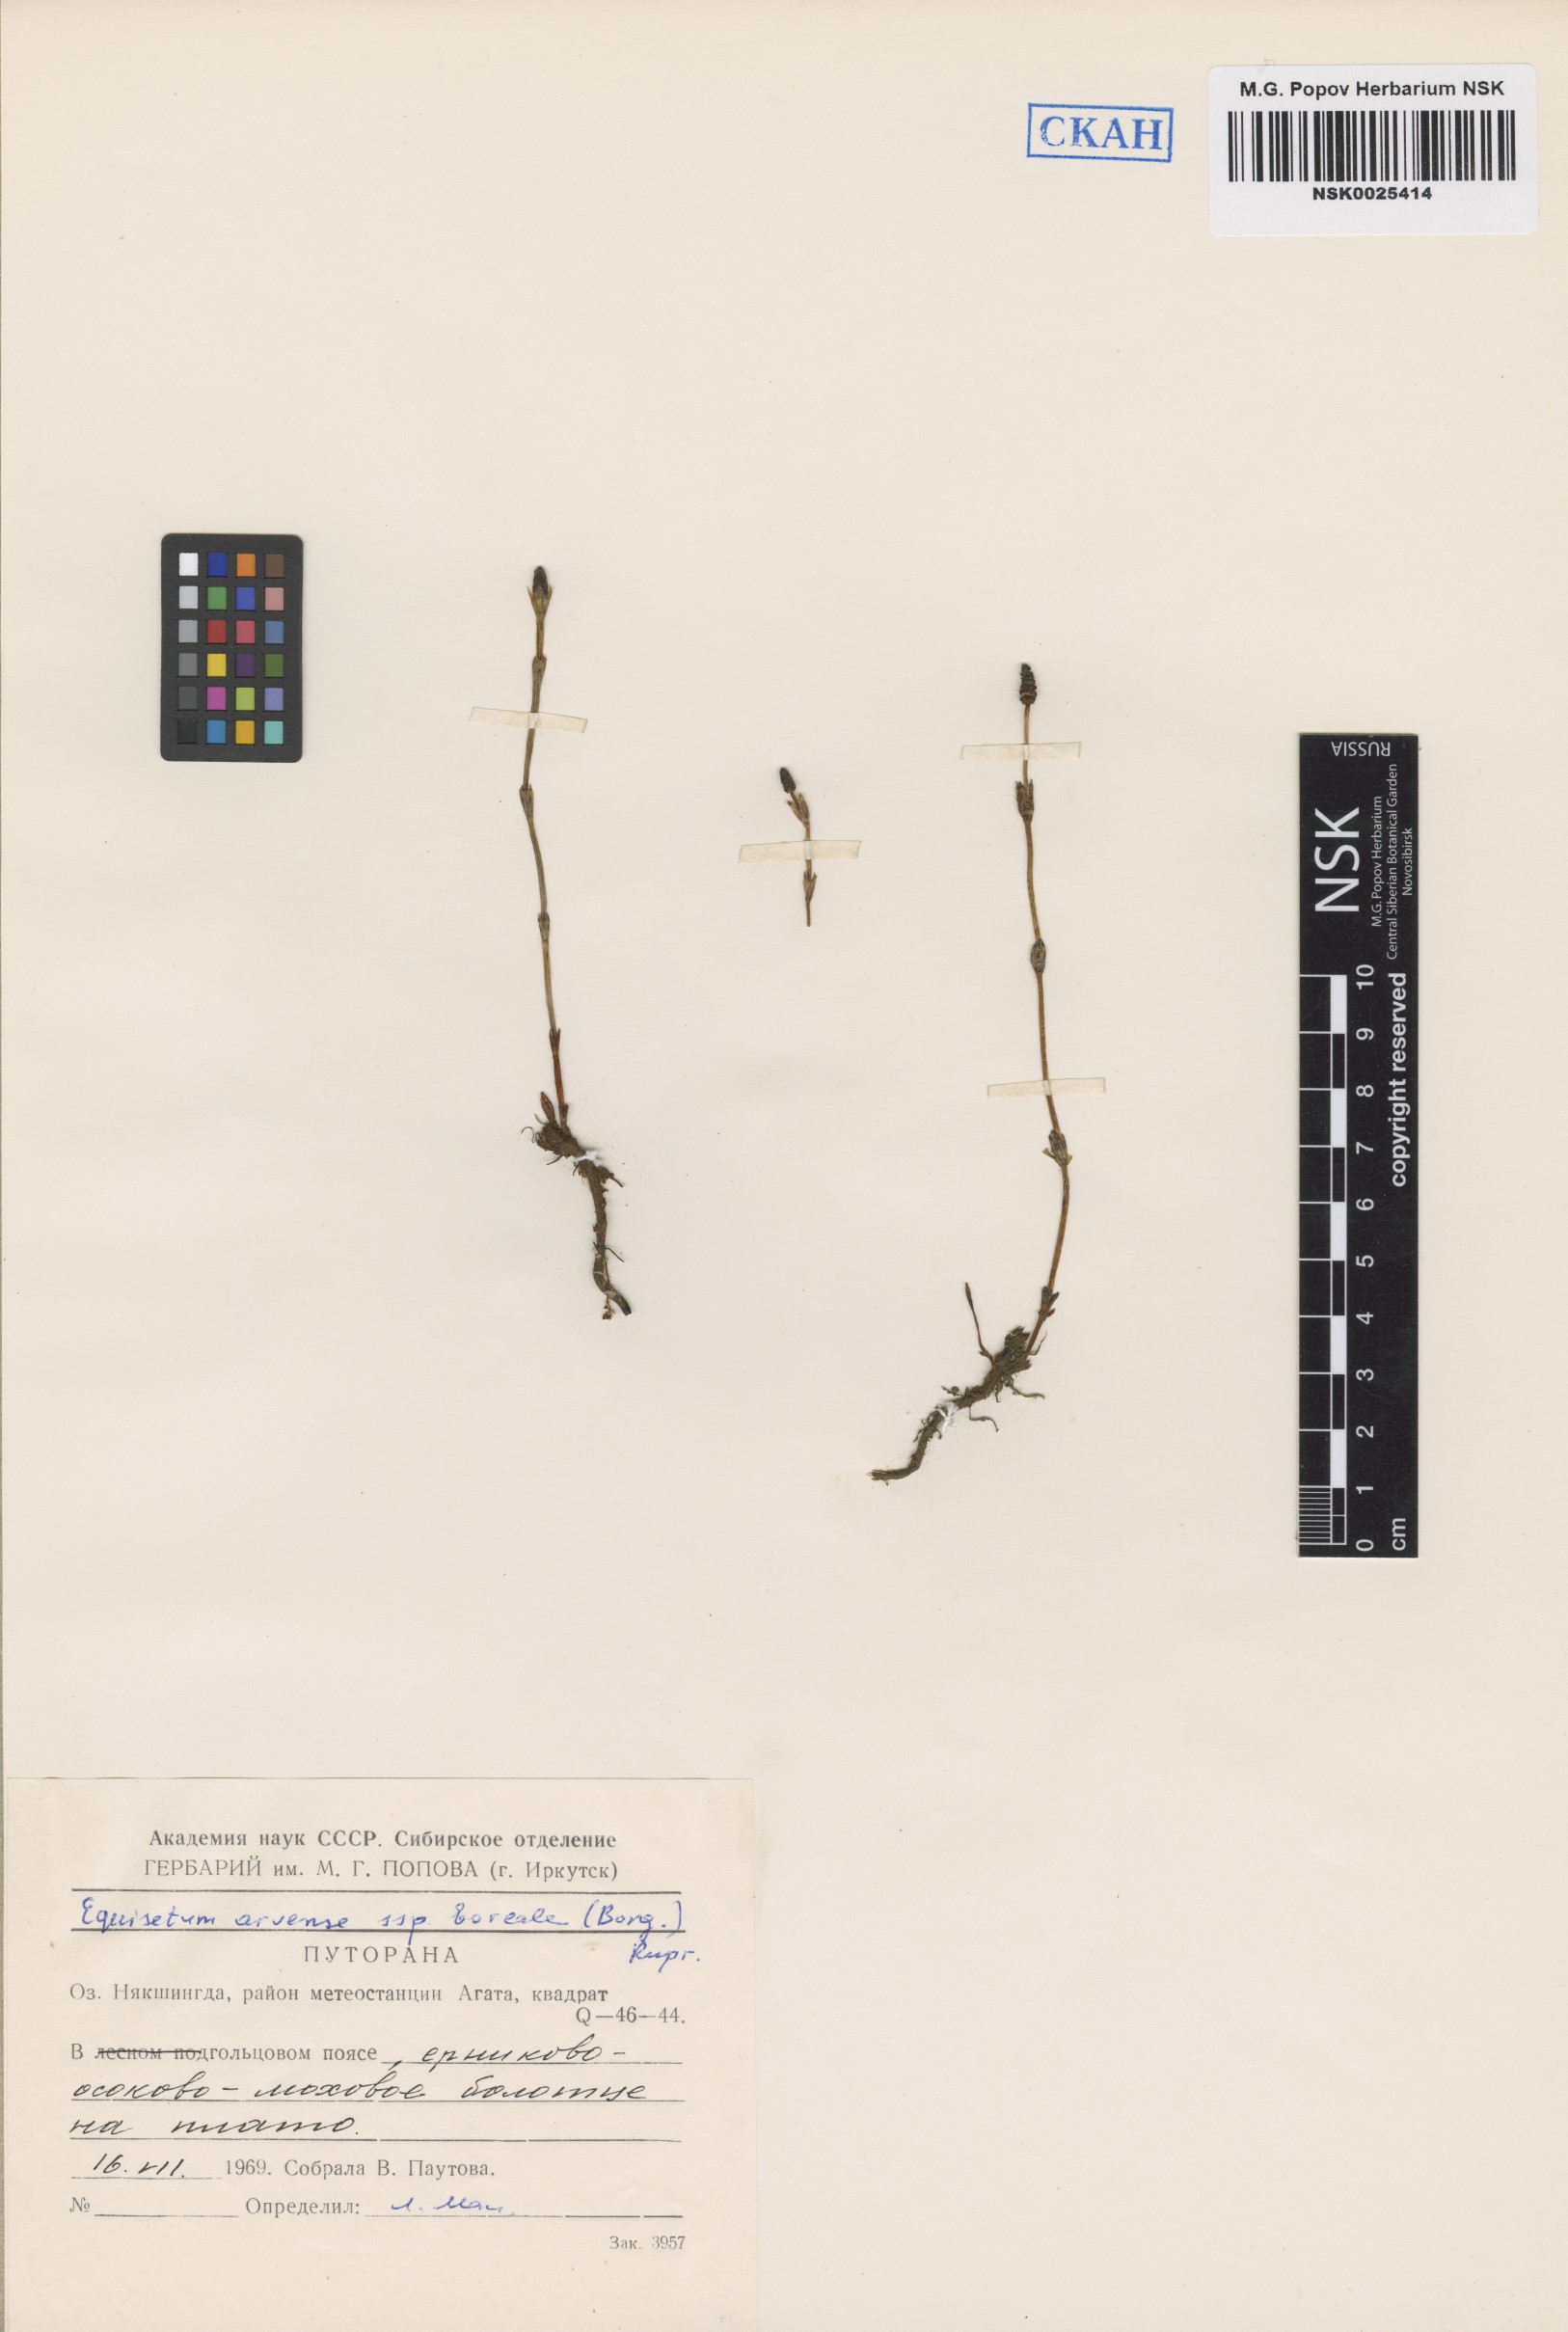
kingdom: Plantae
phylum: Tracheophyta
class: Polypodiopsida
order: Equisetales
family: Equisetaceae
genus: Equisetum
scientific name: Equisetum arvense
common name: Field horsetail
